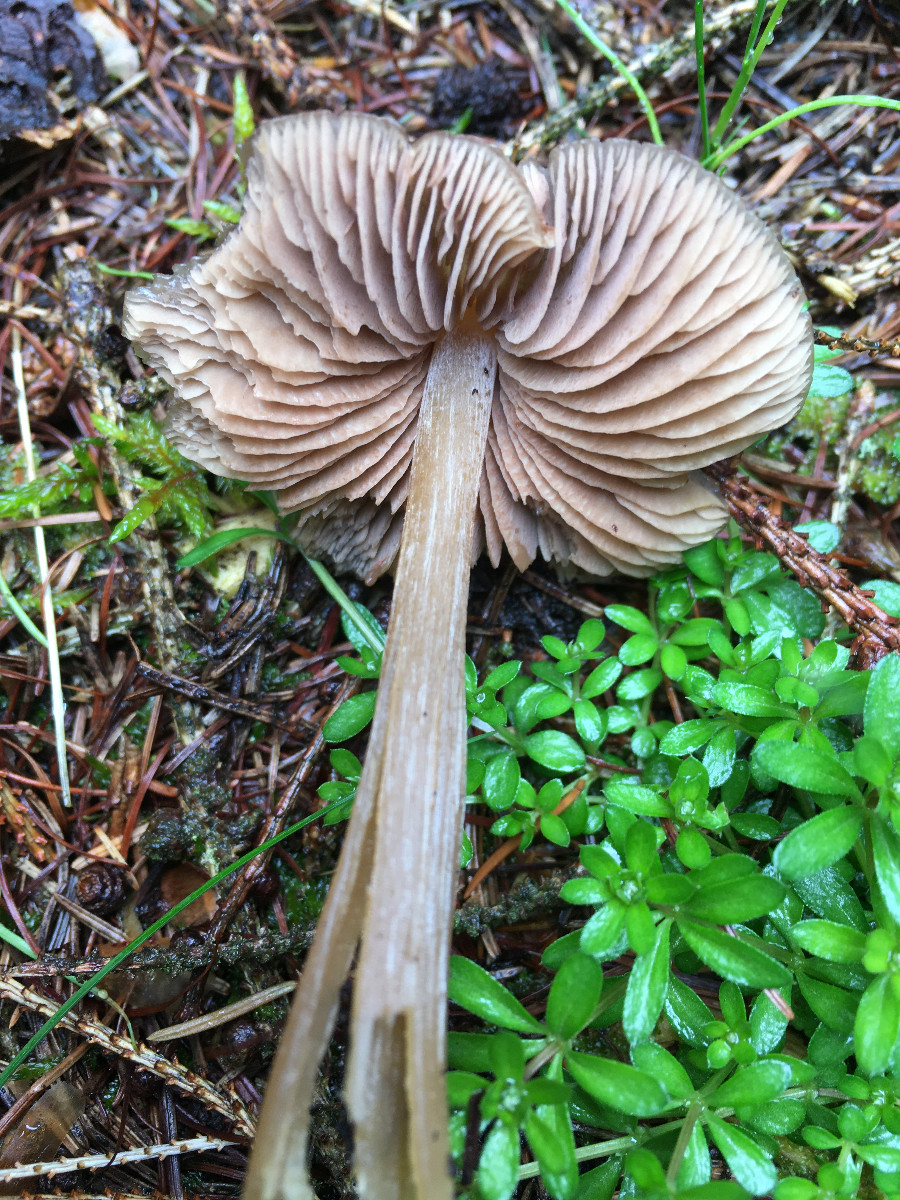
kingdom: Fungi
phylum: Basidiomycota
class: Agaricomycetes
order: Agaricales
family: Entolomataceae
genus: Entoloma
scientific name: Entoloma
